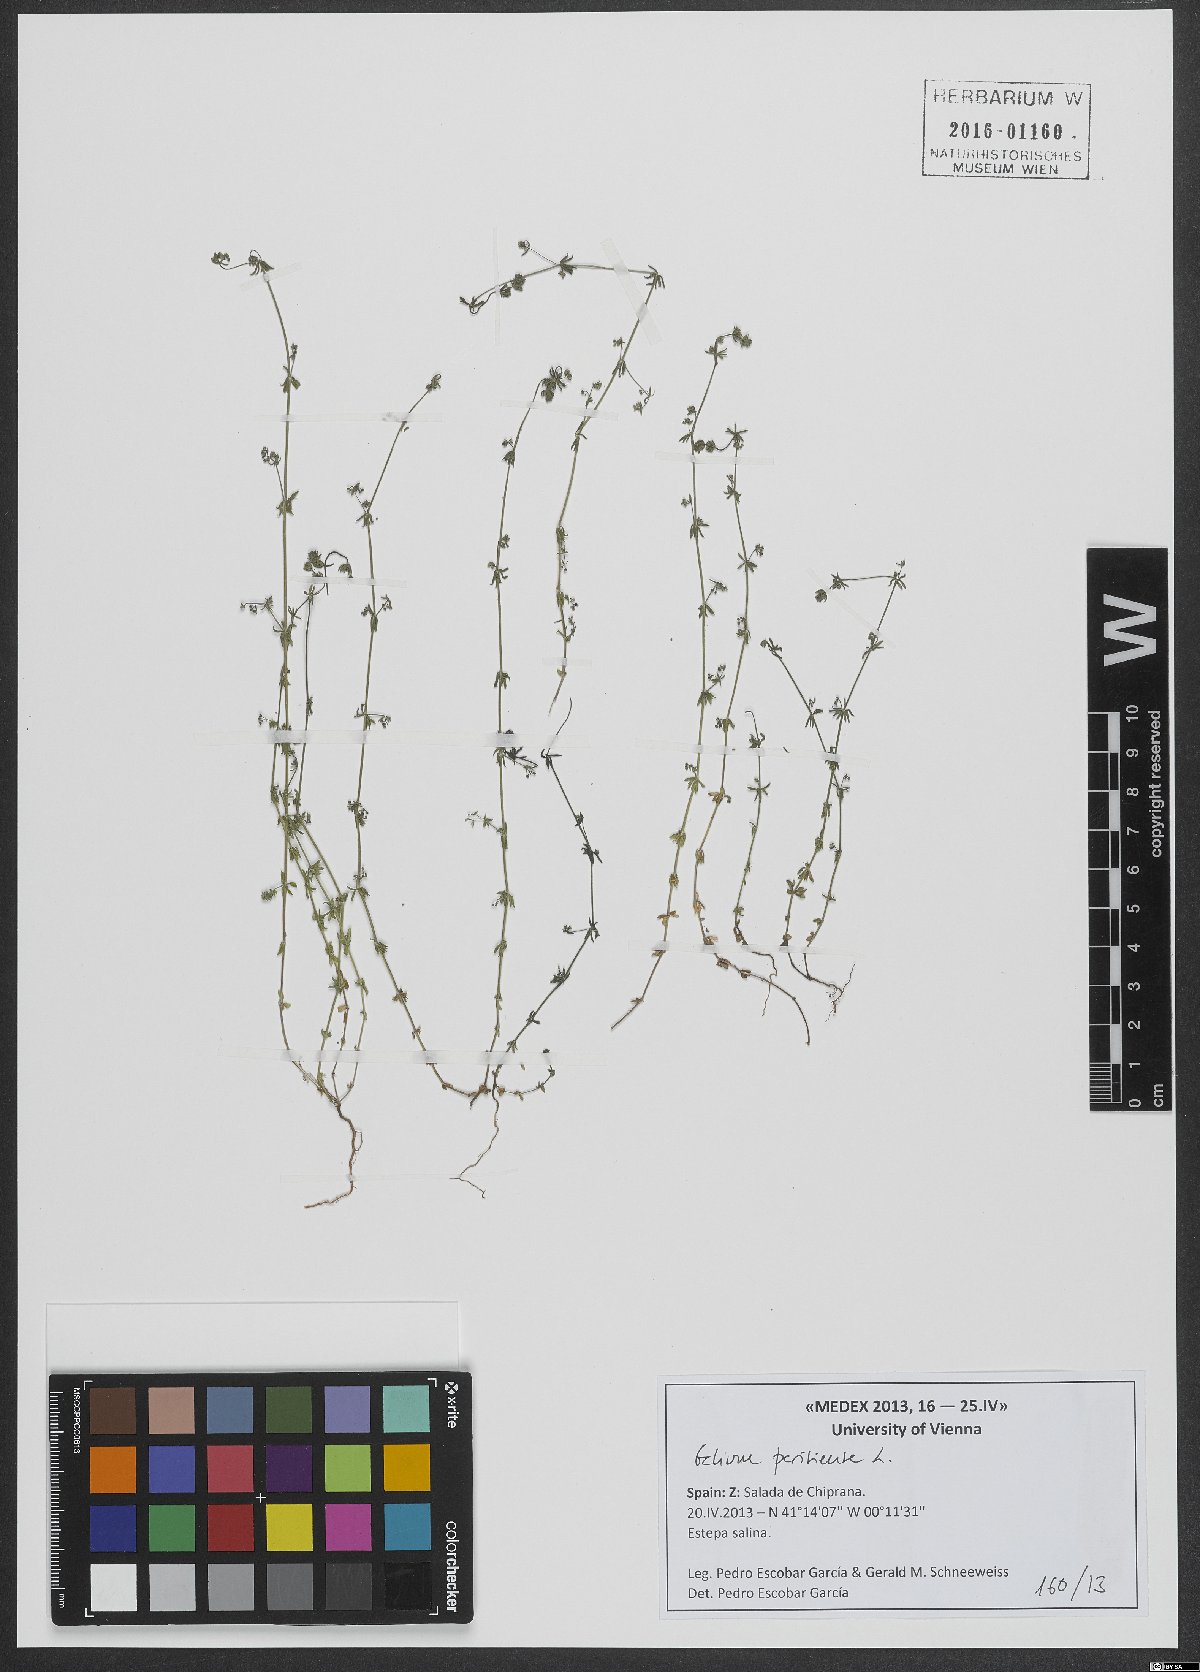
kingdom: Plantae
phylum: Tracheophyta
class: Magnoliopsida
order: Gentianales
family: Rubiaceae
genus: Galium
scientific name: Galium parisiense
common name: Wall bedstraw
